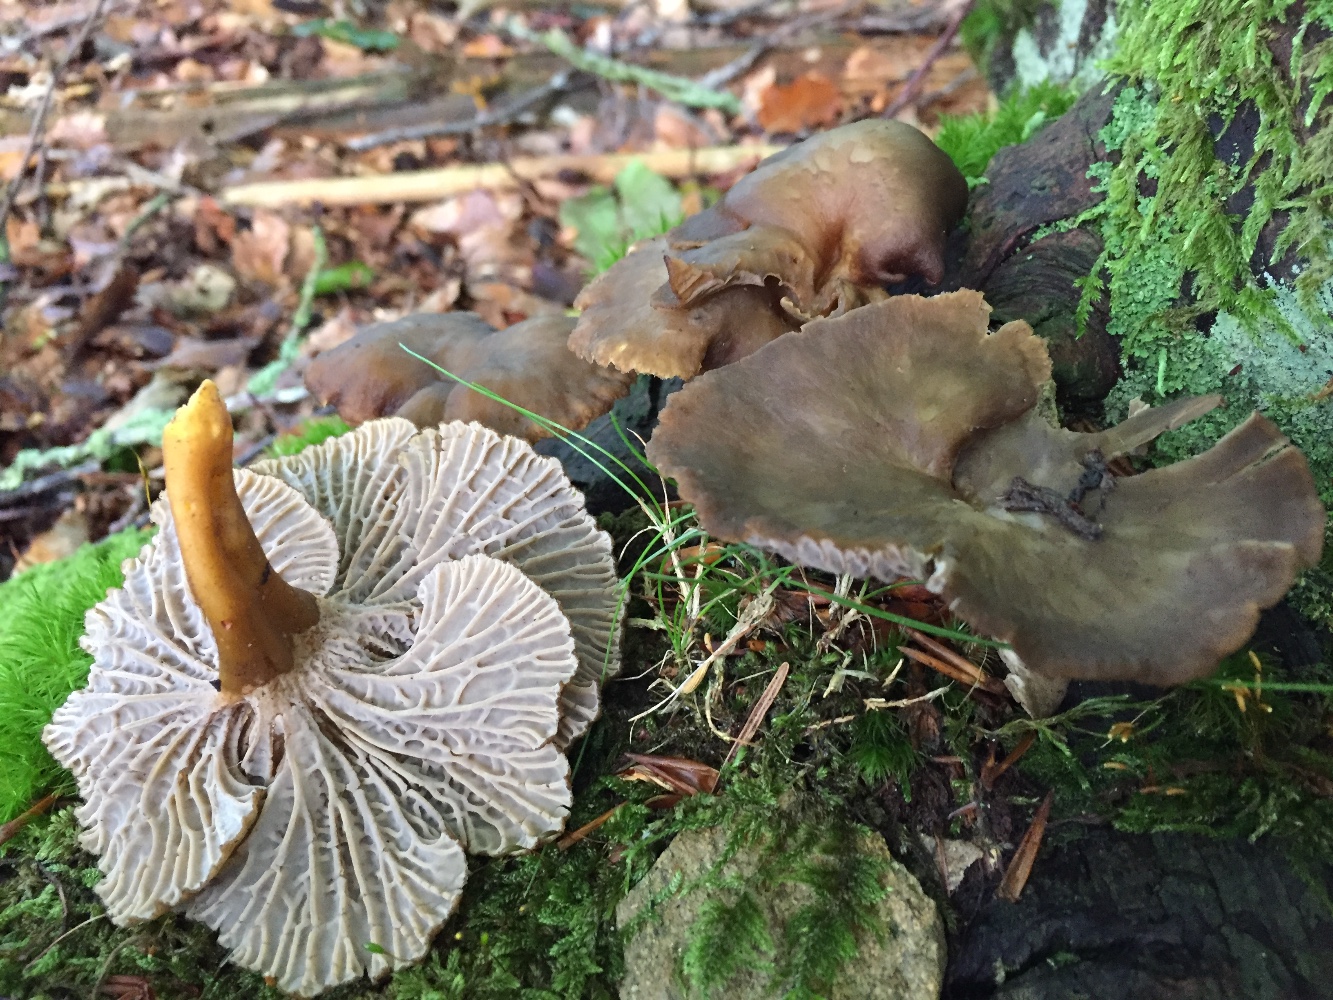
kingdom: Fungi
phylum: Basidiomycota
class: Agaricomycetes
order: Cantharellales
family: Hydnaceae
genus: Craterellus
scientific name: Craterellus tubaeformis
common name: tragt-kantarel
